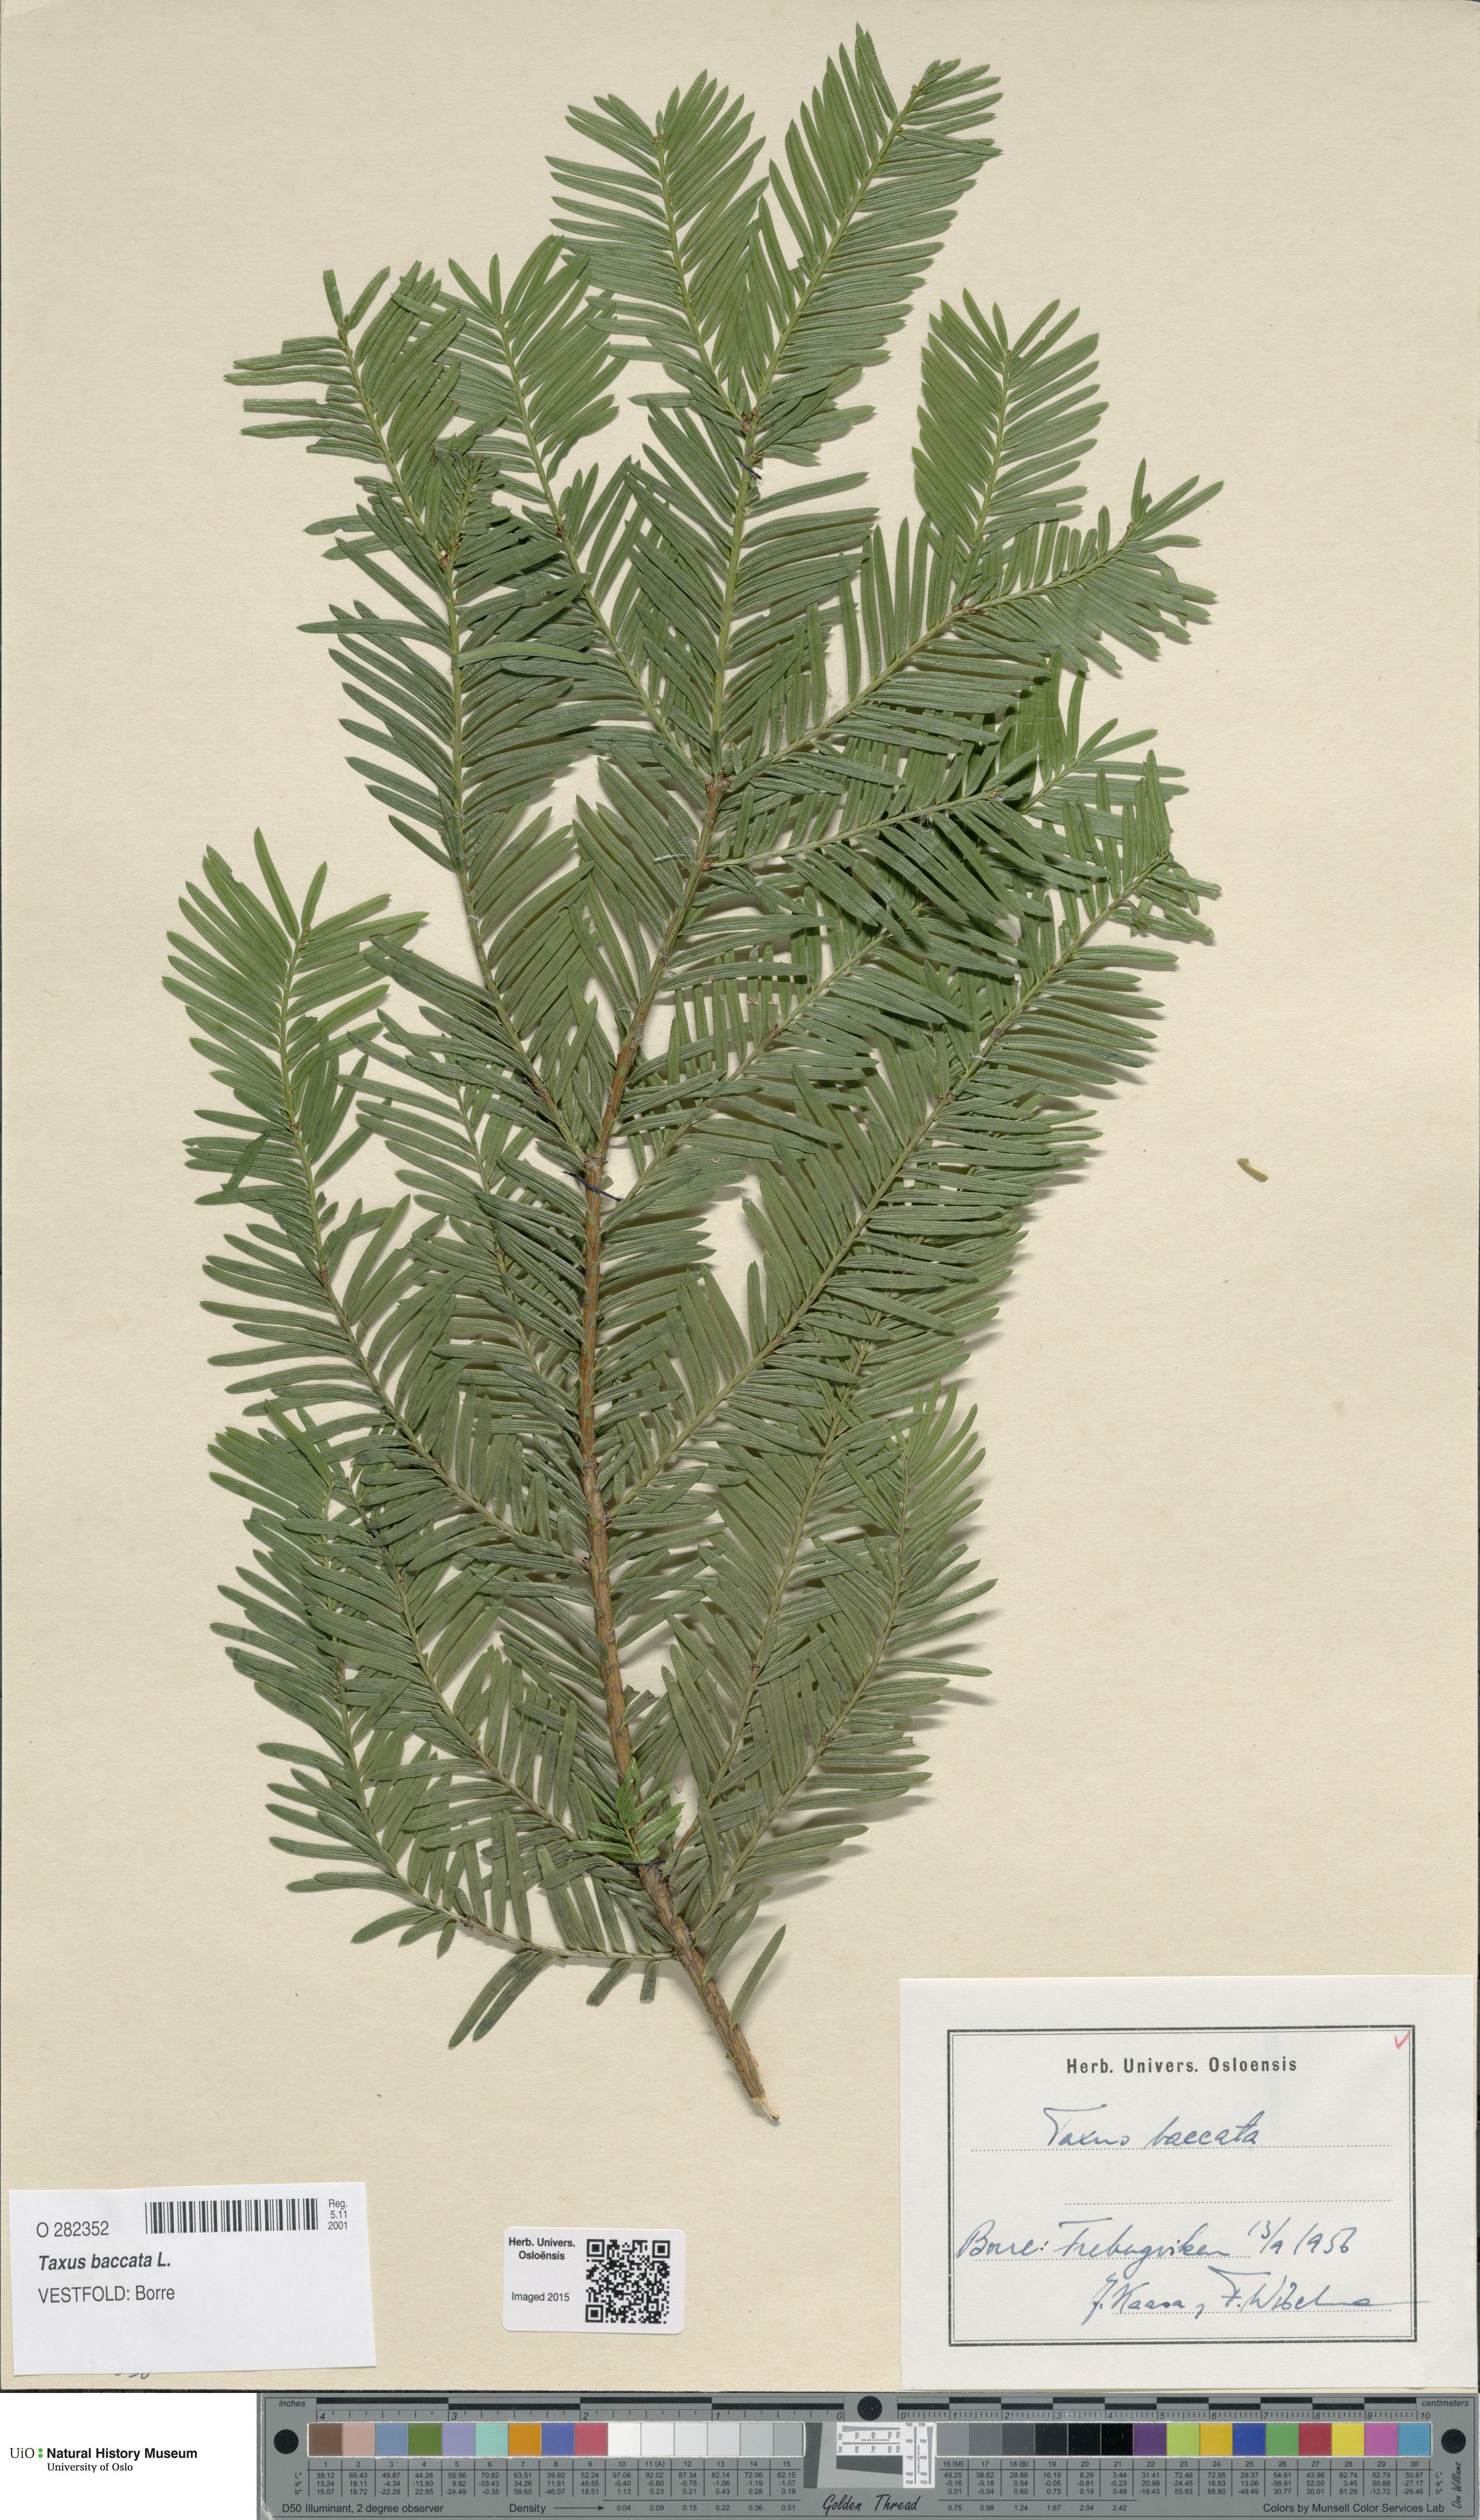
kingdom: Plantae
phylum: Tracheophyta
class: Pinopsida
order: Pinales
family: Taxaceae
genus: Taxus
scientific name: Taxus baccata
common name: Yew
